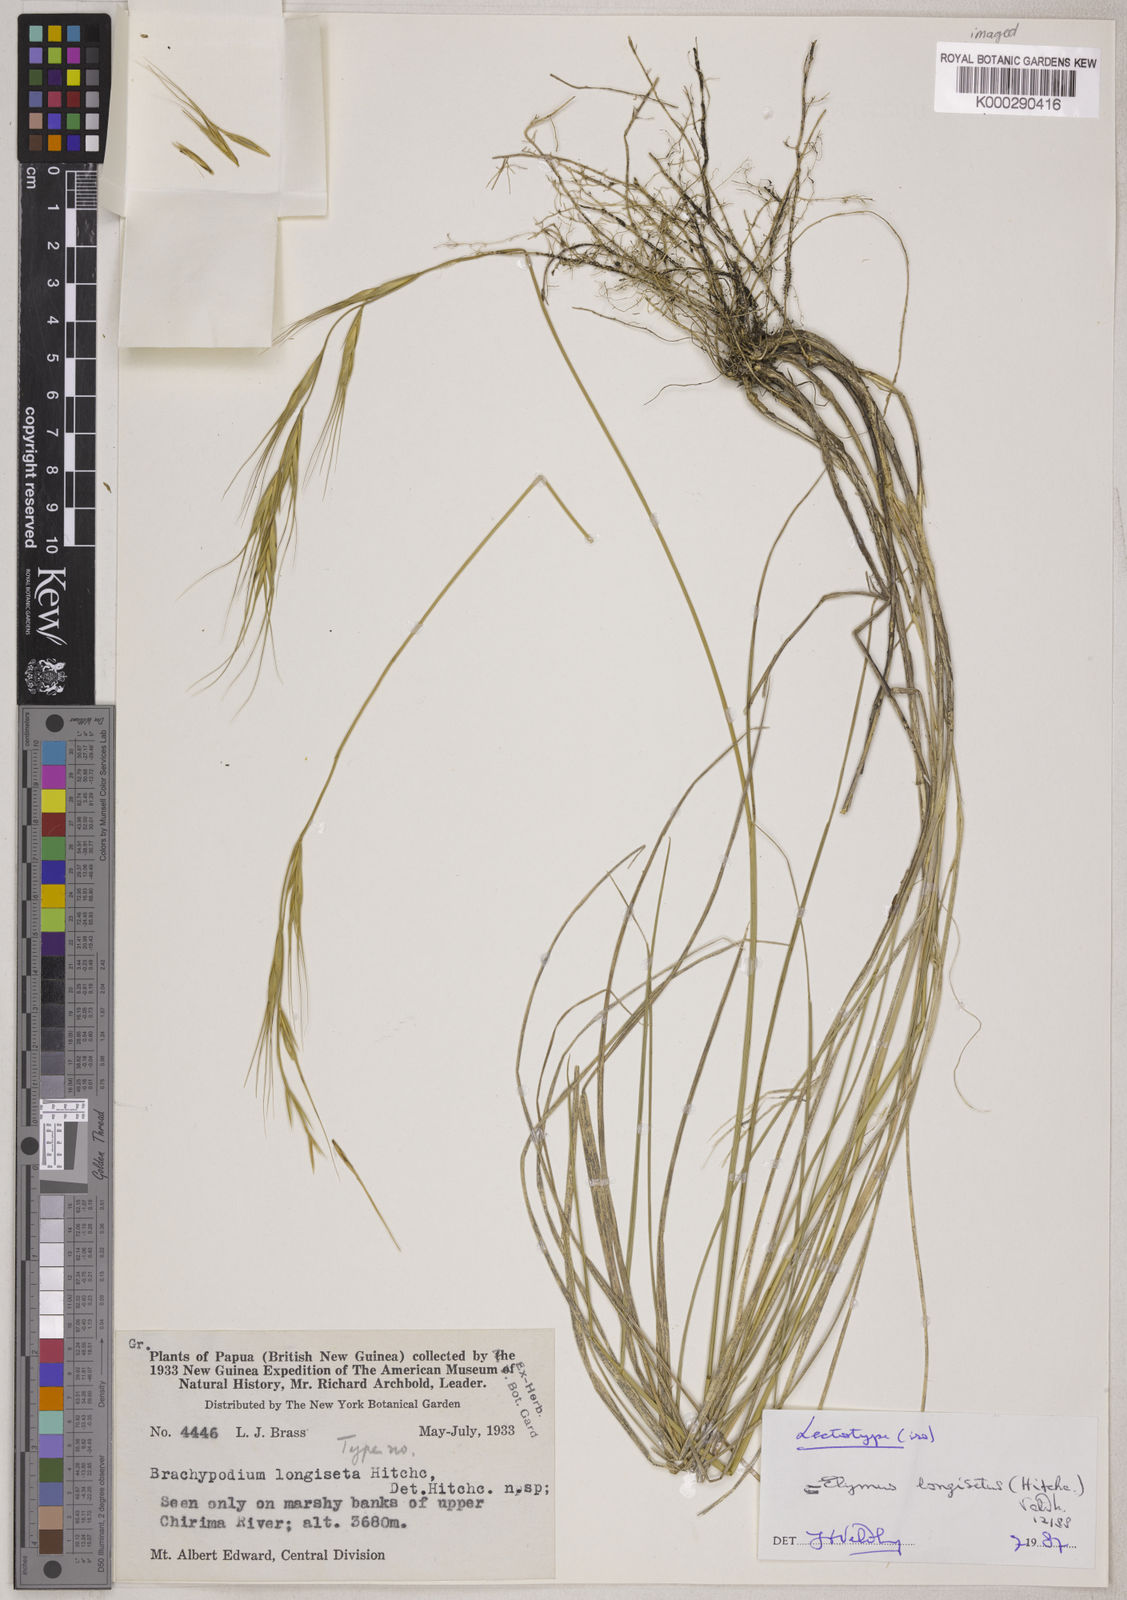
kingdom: Plantae
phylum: Tracheophyta
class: Liliopsida
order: Poales
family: Poaceae
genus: Anthosachne
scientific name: Anthosachne longiseta
